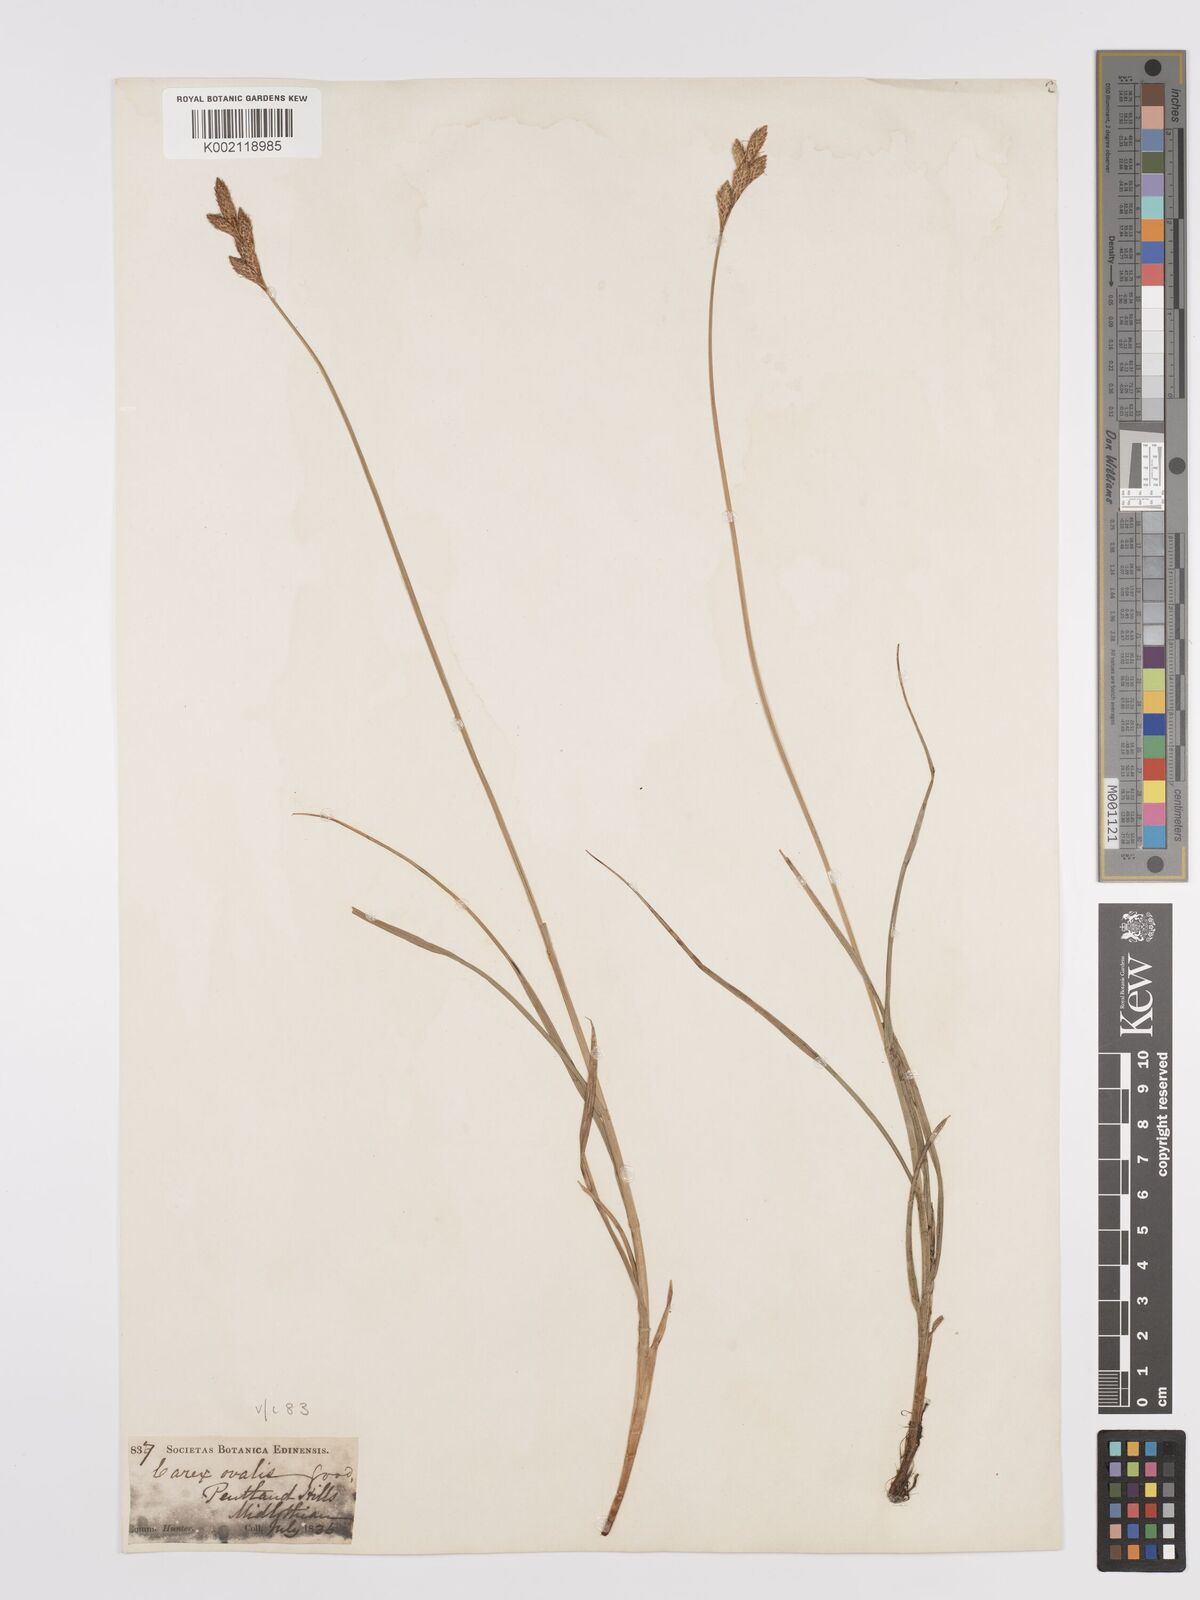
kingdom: Plantae
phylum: Tracheophyta
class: Liliopsida
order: Poales
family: Cyperaceae
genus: Carex
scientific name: Carex leporina
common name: Oval sedge
